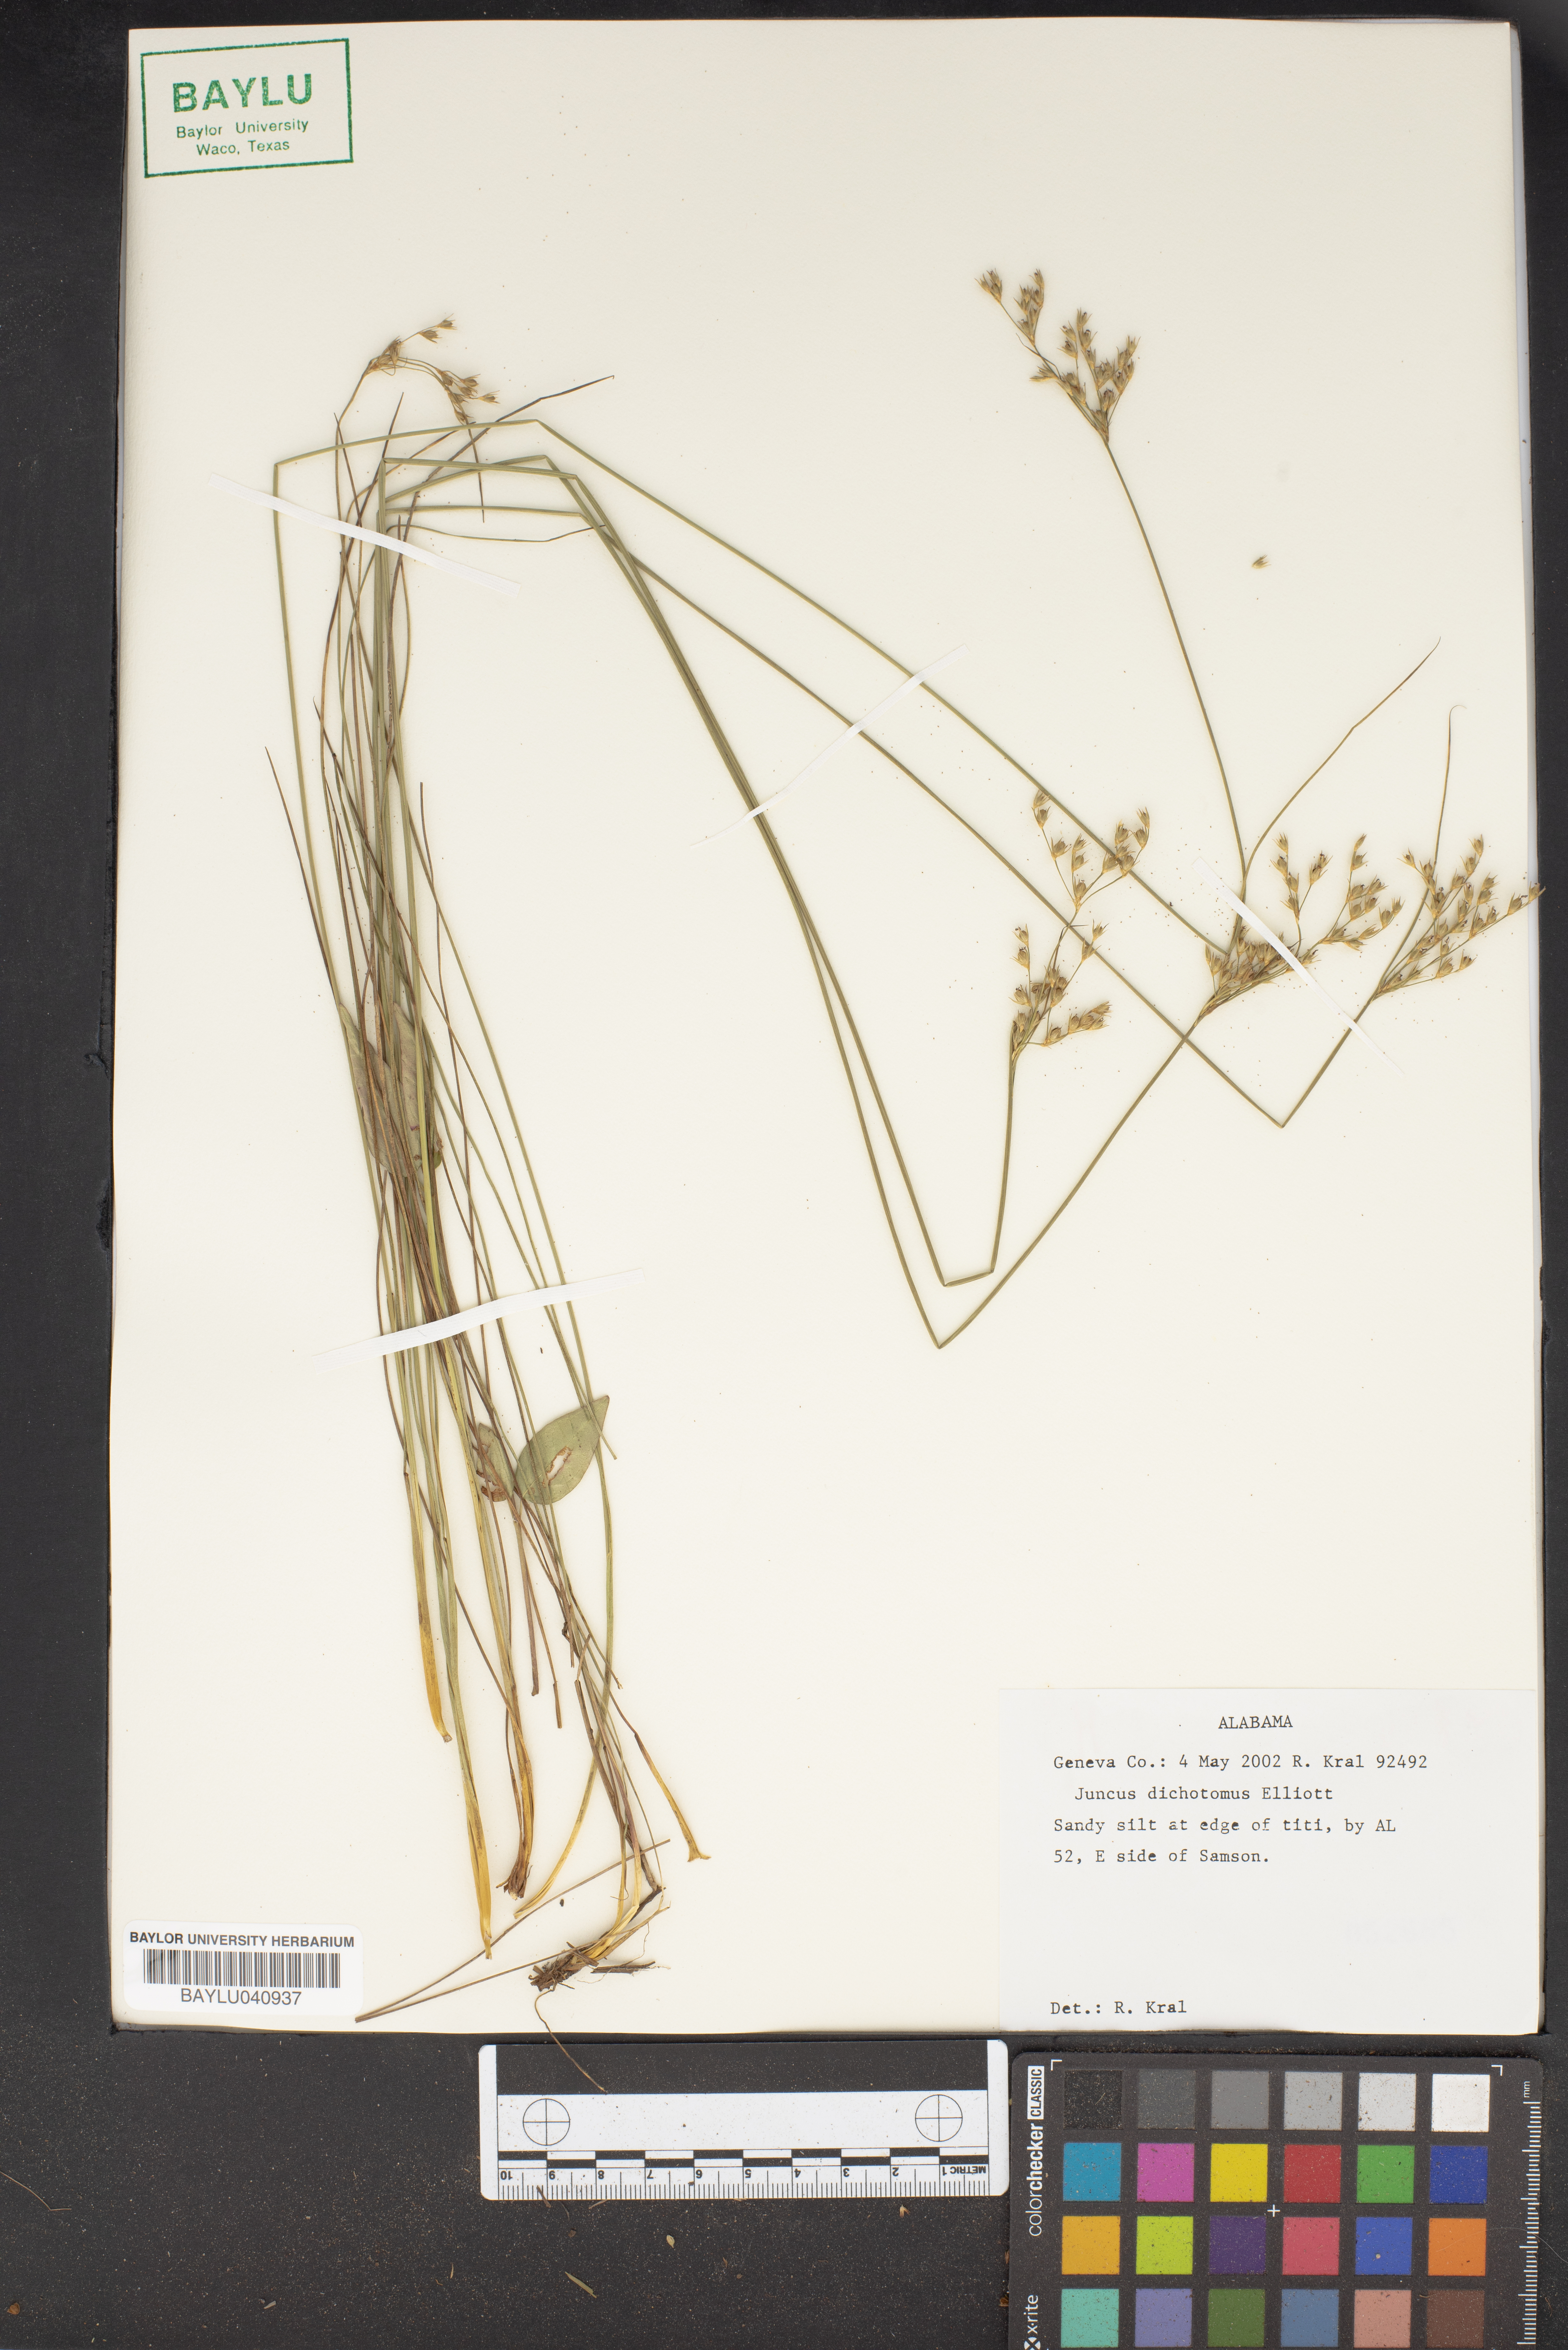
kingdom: Plantae
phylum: Tracheophyta
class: Liliopsida
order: Poales
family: Juncaceae
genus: Juncus
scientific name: Juncus dichotomus
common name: Forked rush
